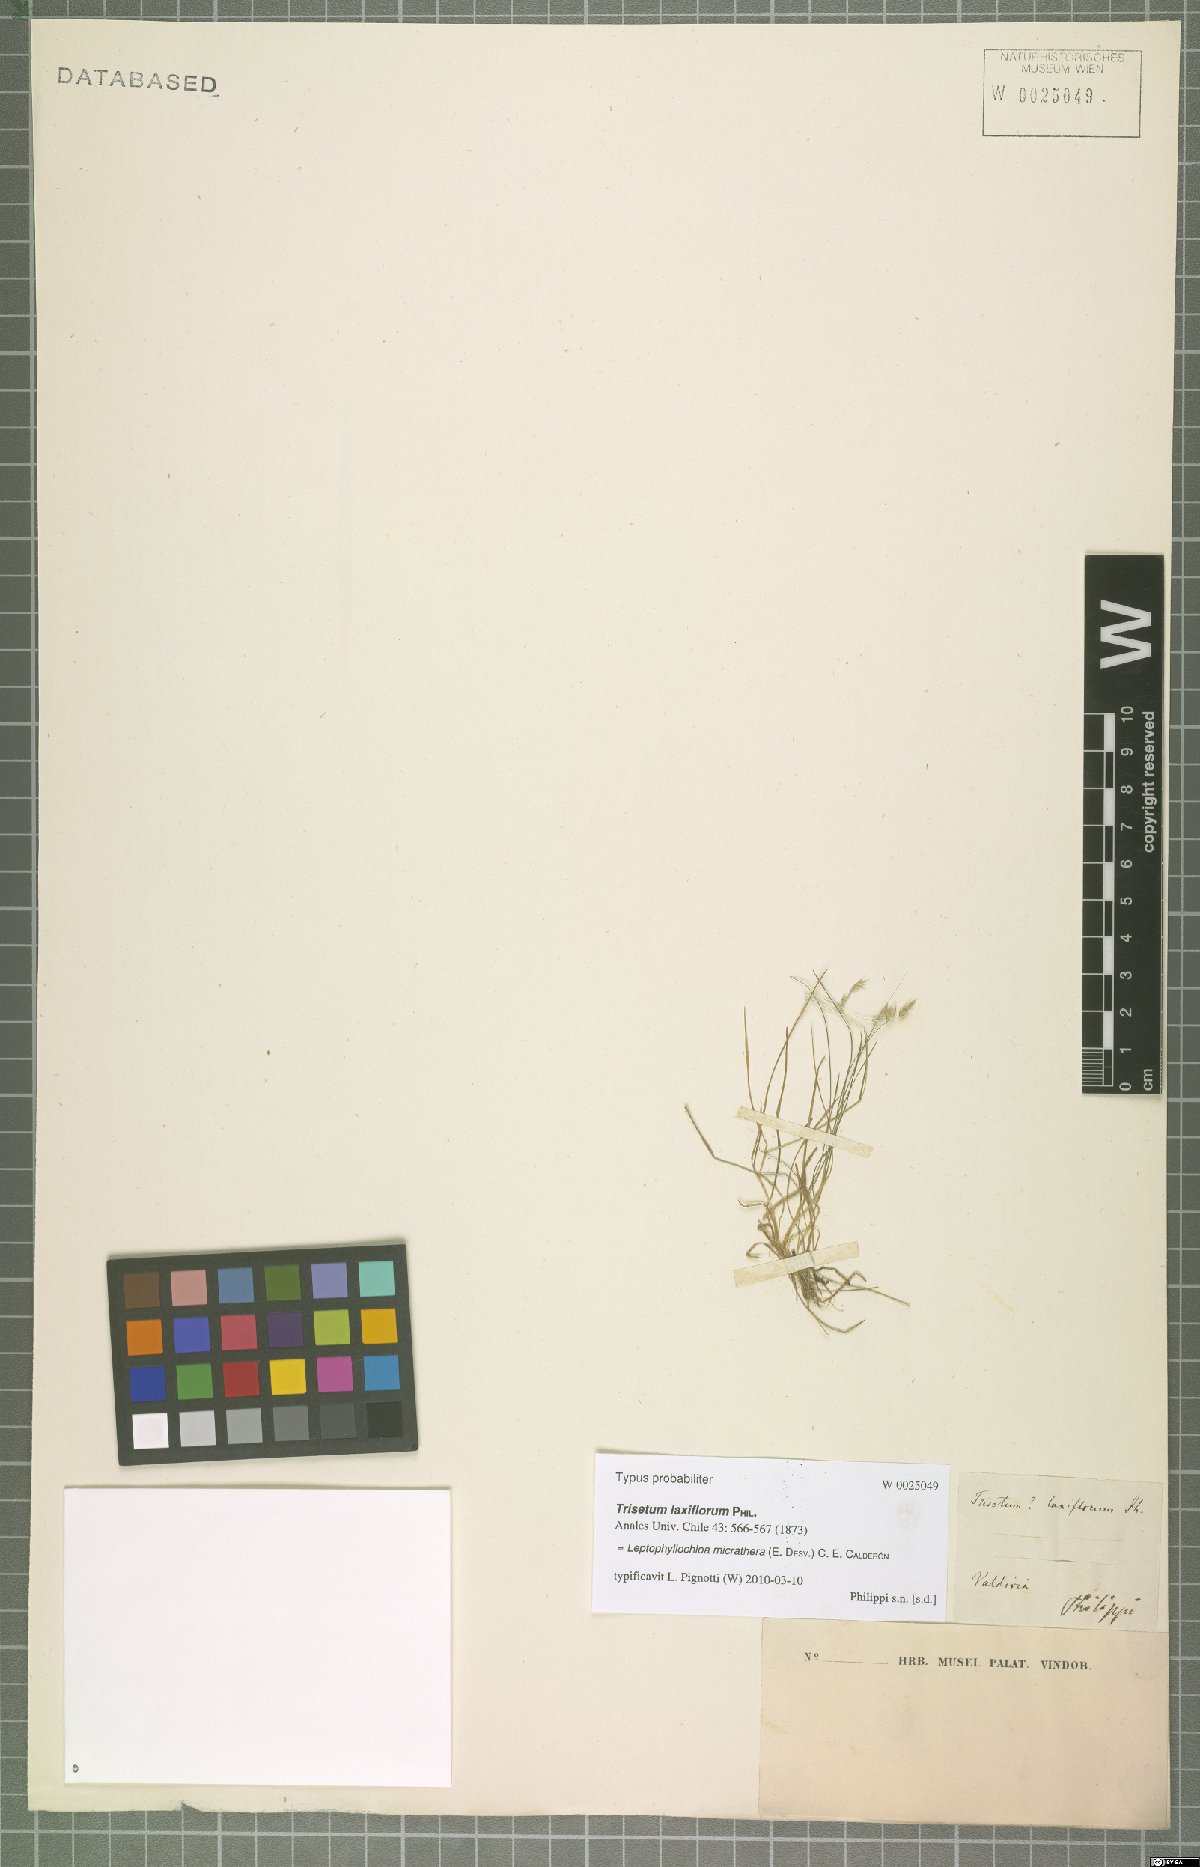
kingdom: Plantae
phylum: Tracheophyta
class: Liliopsida
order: Poales
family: Poaceae
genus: Cinnagrostis
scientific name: Cinnagrostis micrathera
